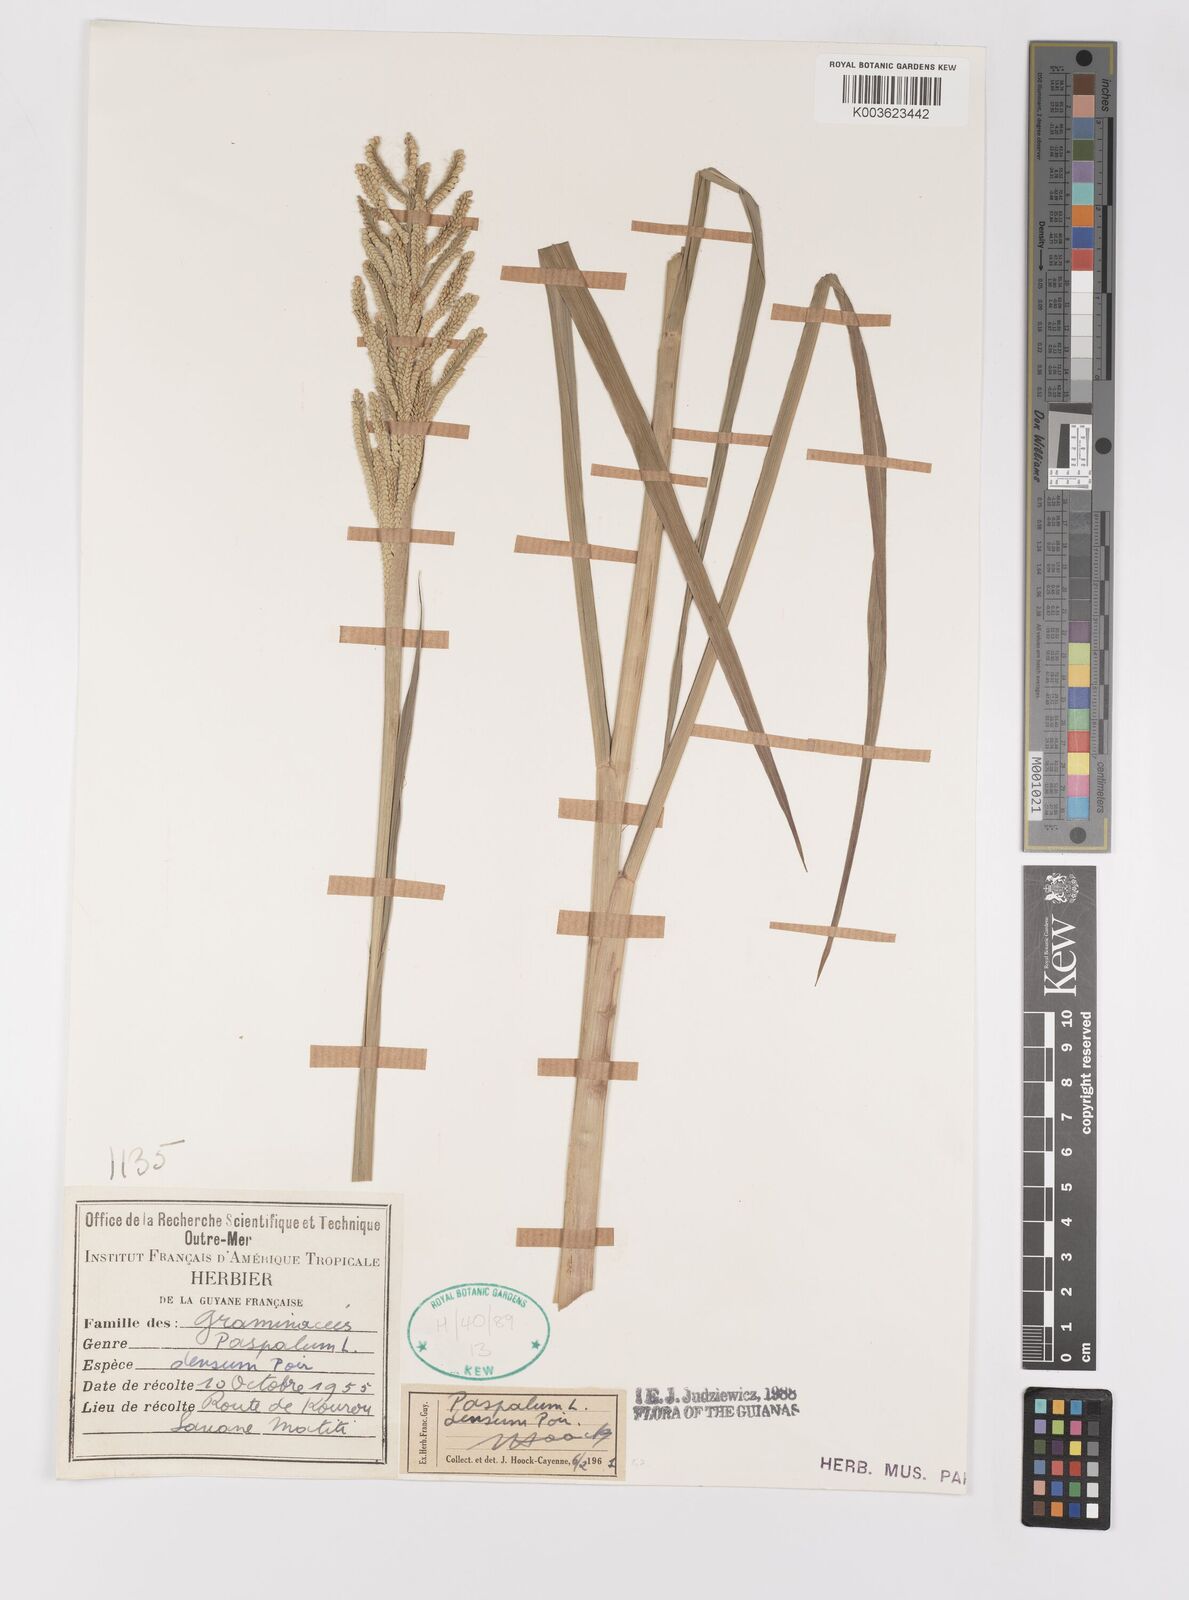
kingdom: Plantae
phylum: Tracheophyta
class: Liliopsida
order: Poales
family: Poaceae
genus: Paspalum
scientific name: Paspalum densum
